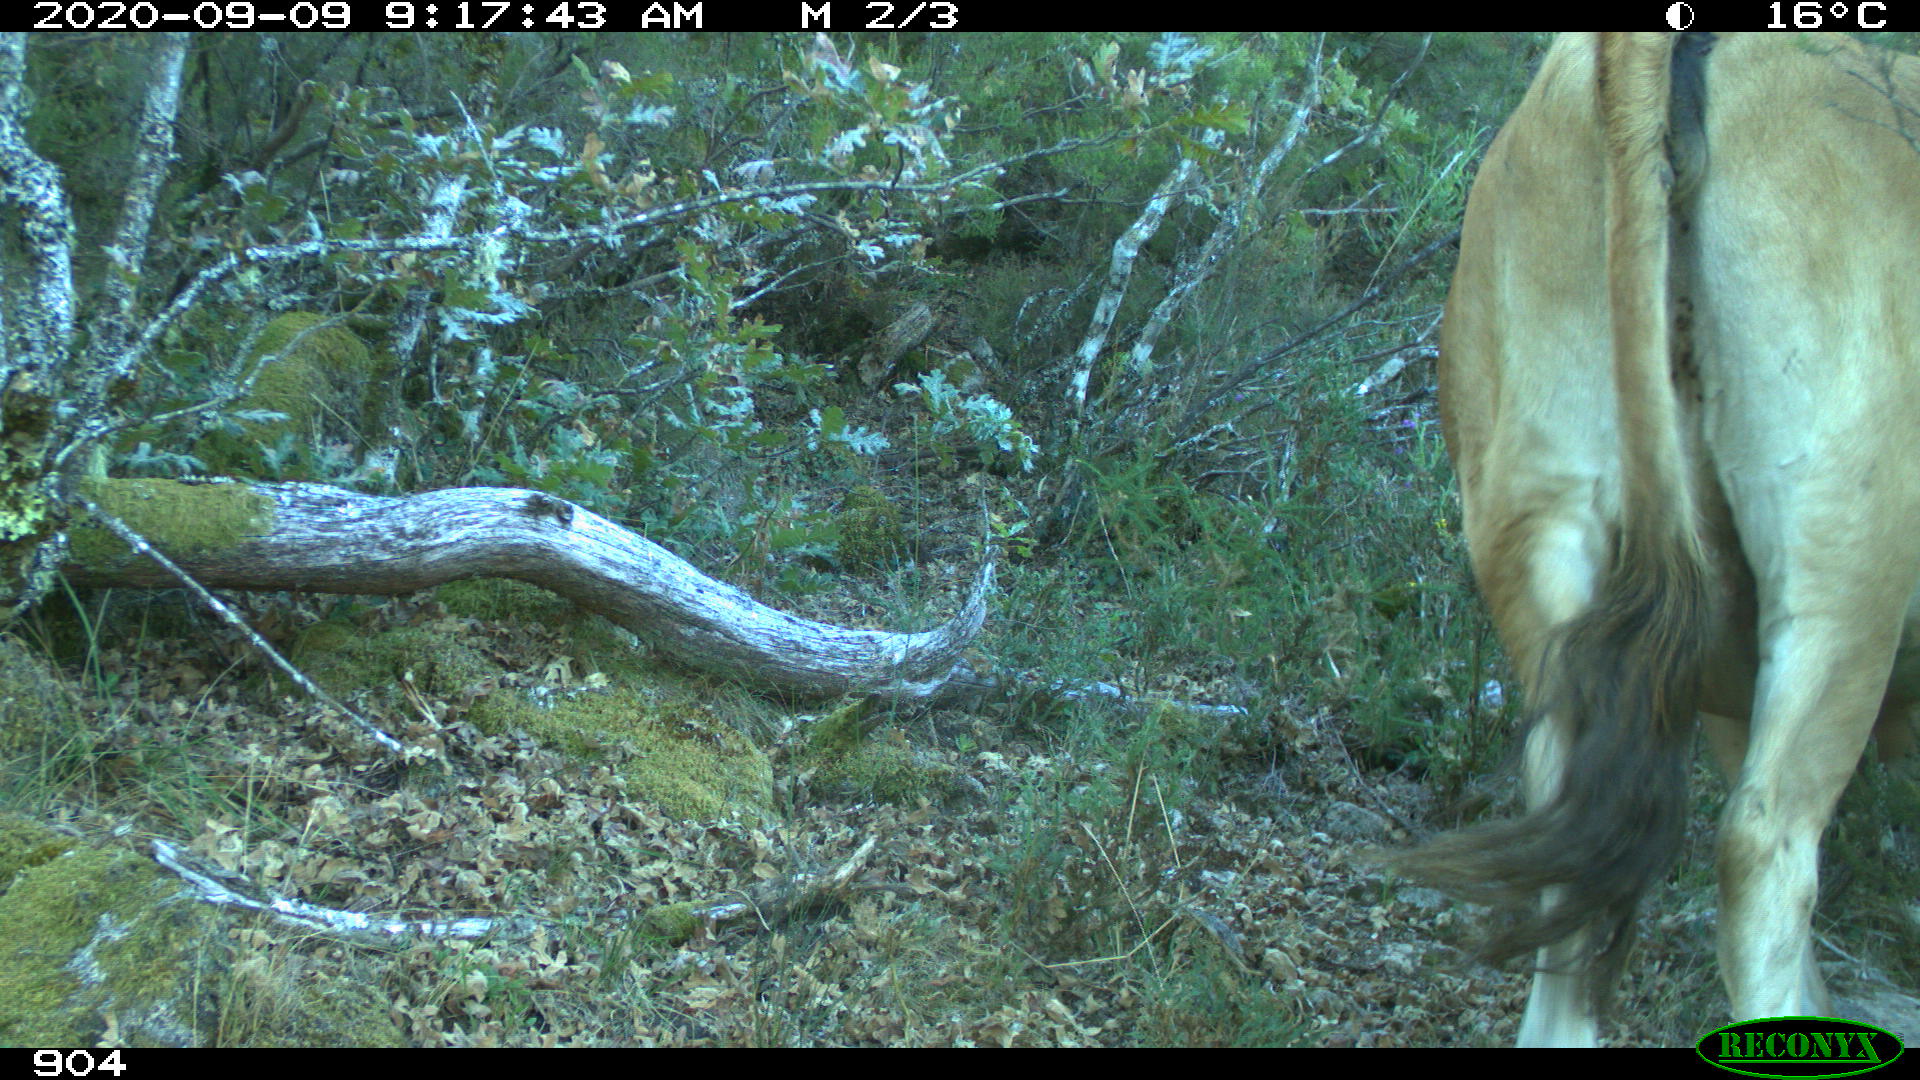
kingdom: Animalia
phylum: Chordata
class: Mammalia
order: Artiodactyla
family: Bovidae
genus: Bos
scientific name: Bos taurus
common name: Domesticated cattle
